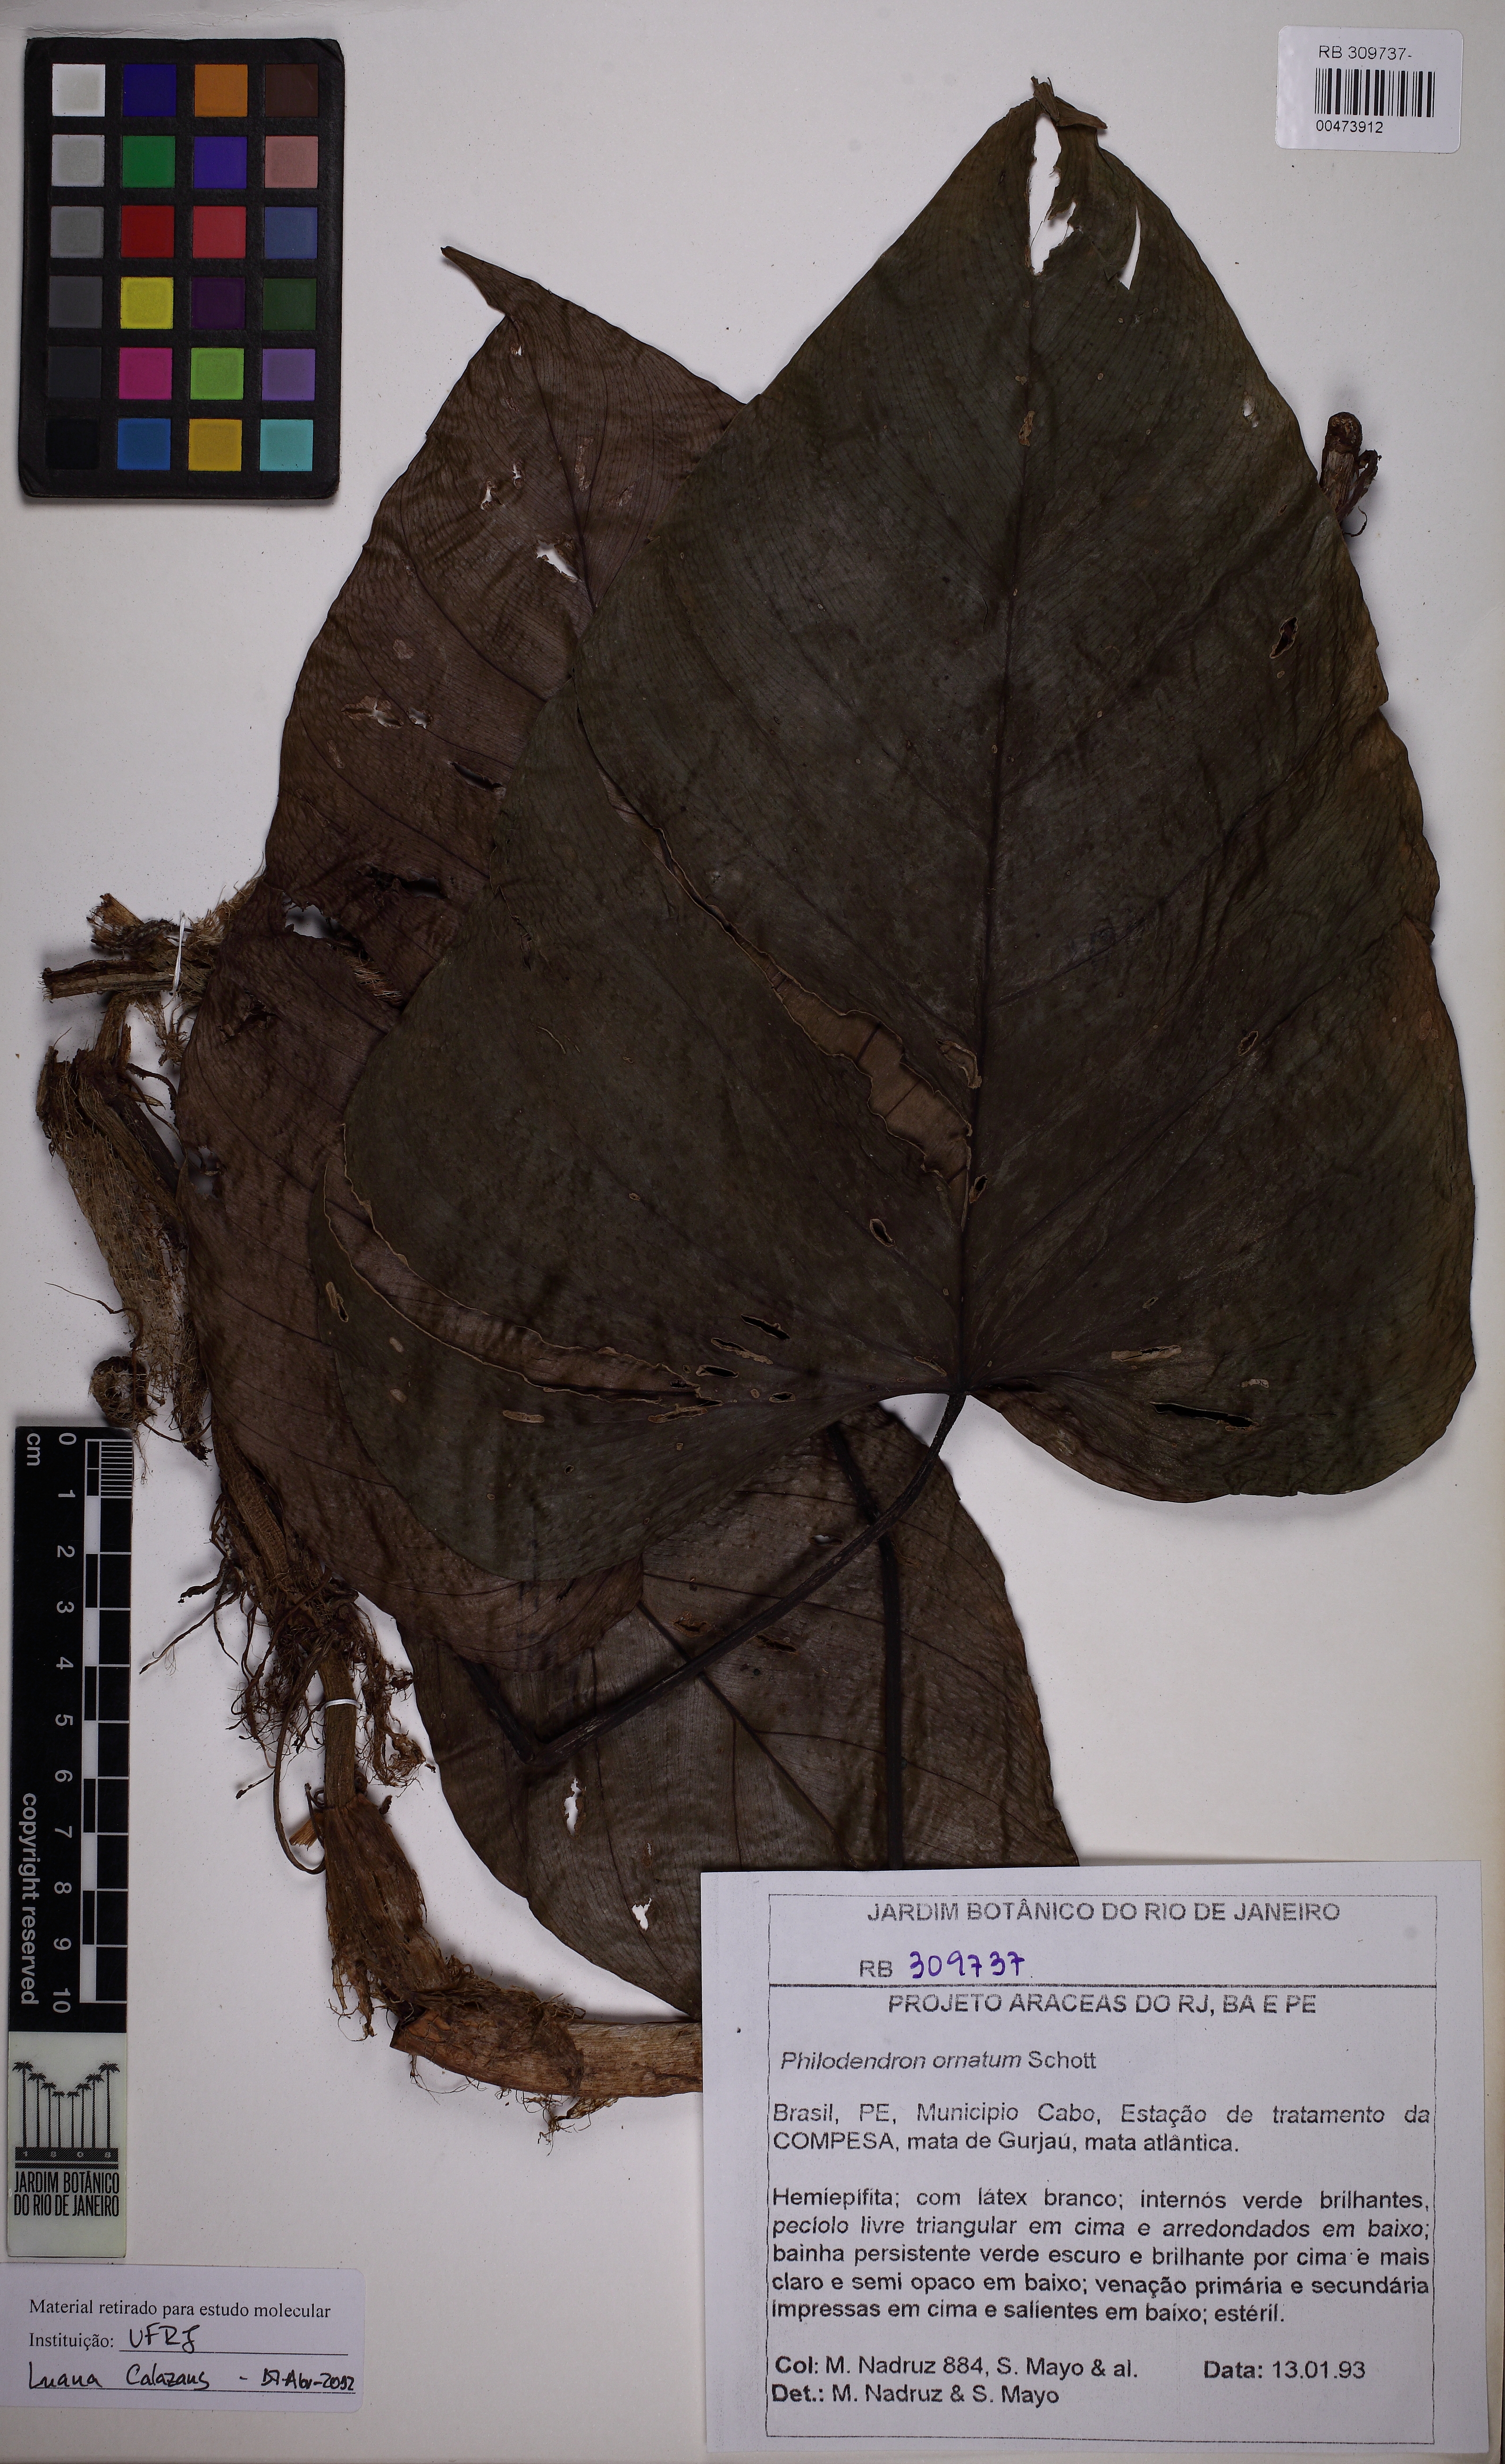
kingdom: Plantae
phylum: Tracheophyta
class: Liliopsida
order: Alismatales
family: Araceae
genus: Philodendron
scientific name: Philodendron ornatum
